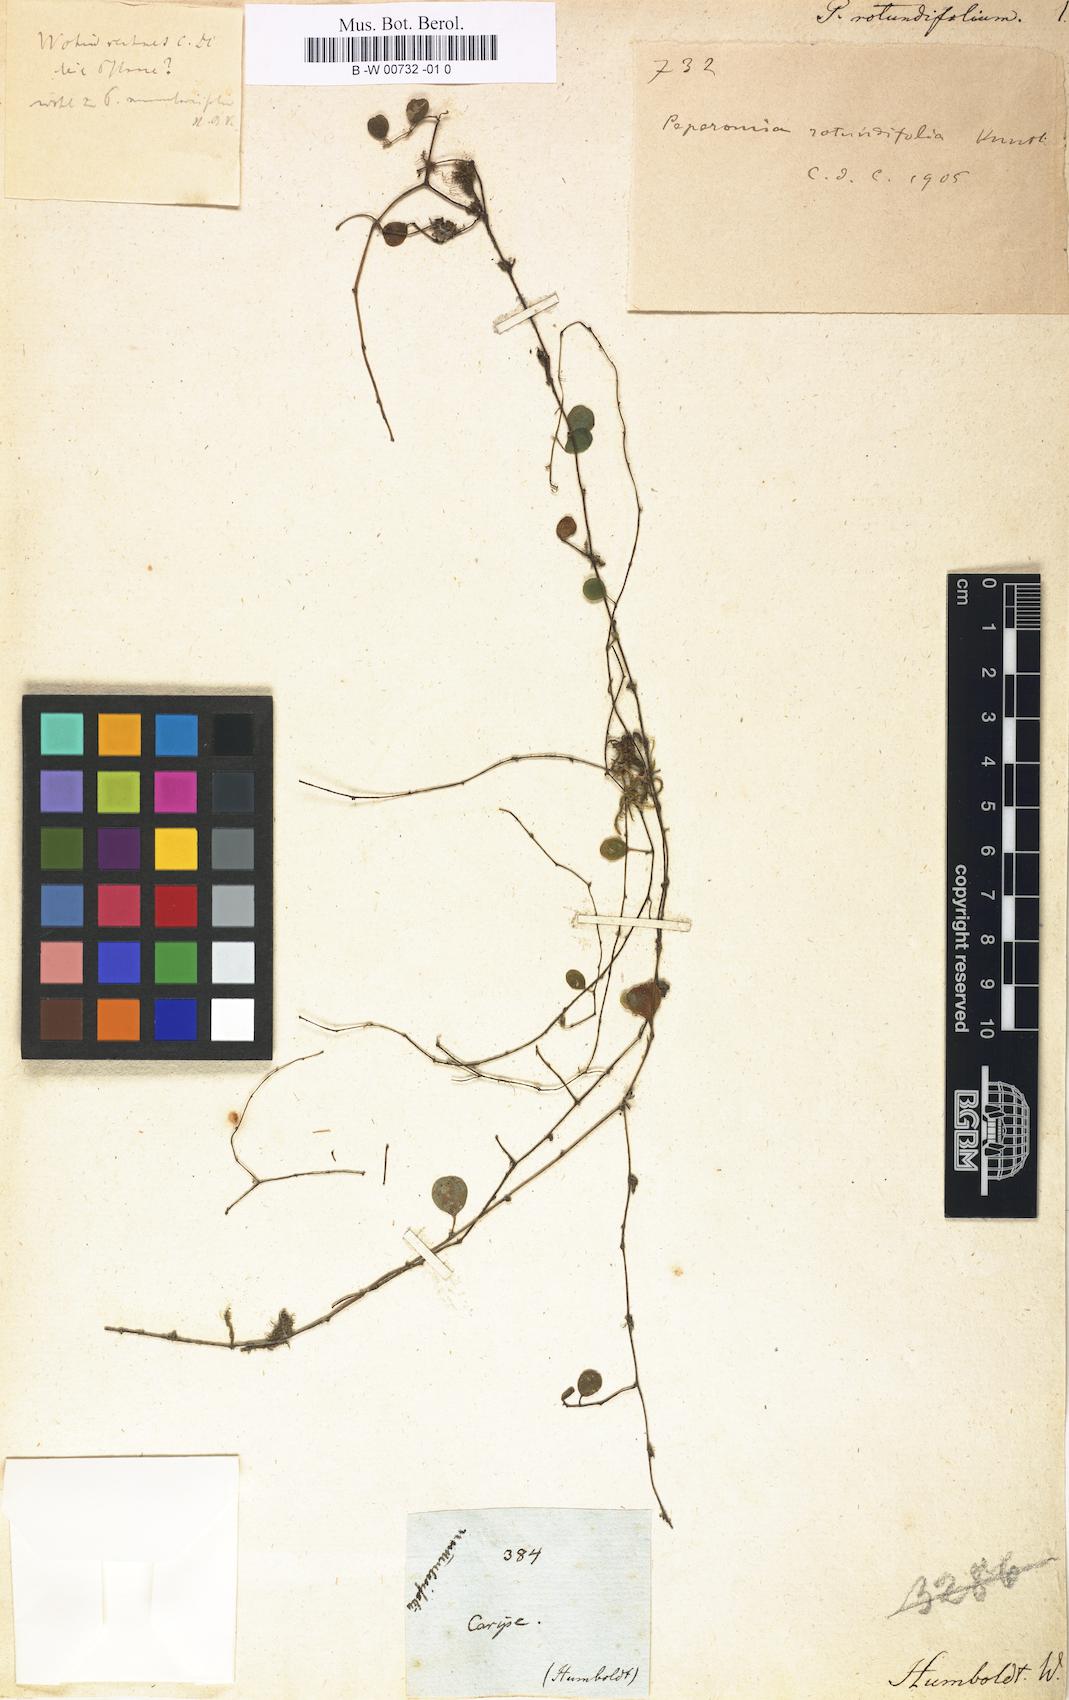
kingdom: Plantae
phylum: Tracheophyta
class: Magnoliopsida
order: Piperales
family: Piperaceae
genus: Peperomia
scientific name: Peperomia rotundifolia
